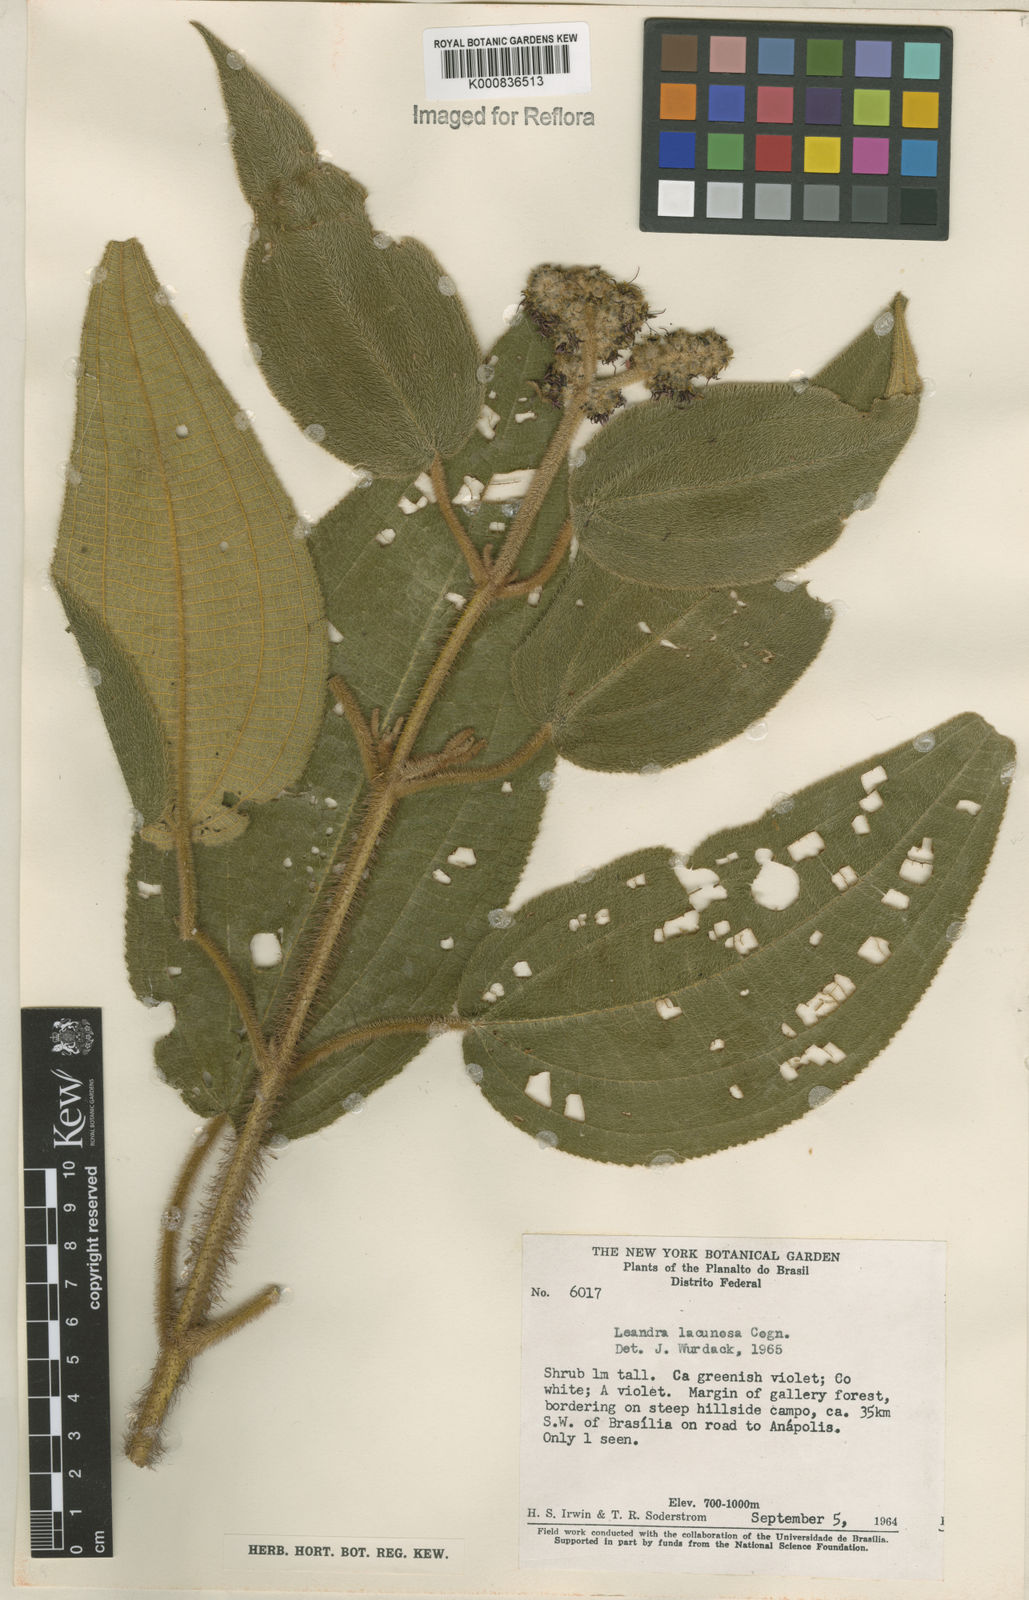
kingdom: Plantae
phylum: Tracheophyta
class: Magnoliopsida
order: Myrtales
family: Melastomataceae
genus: Miconia
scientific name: Miconia lacunosa
